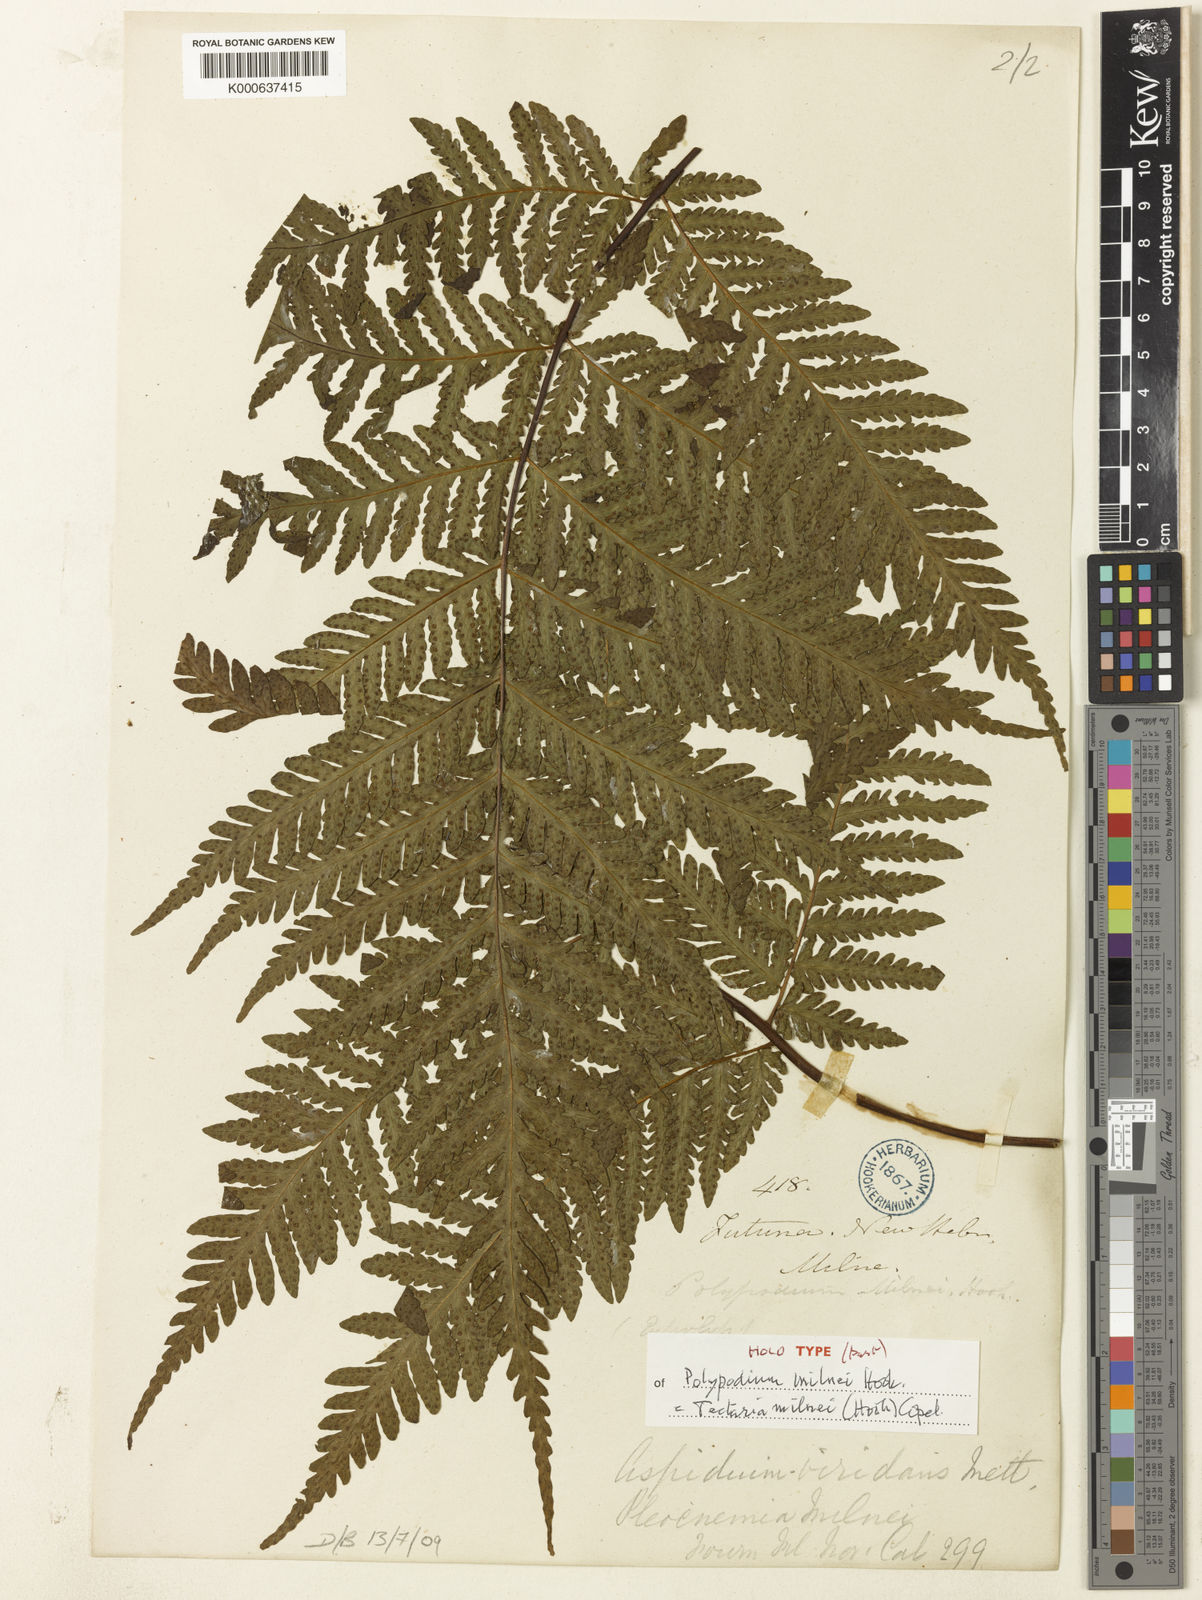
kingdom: Plantae
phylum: Tracheophyta
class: Polypodiopsida
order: Polypodiales
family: Tectariaceae
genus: Tectaria
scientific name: Tectaria hookeri
